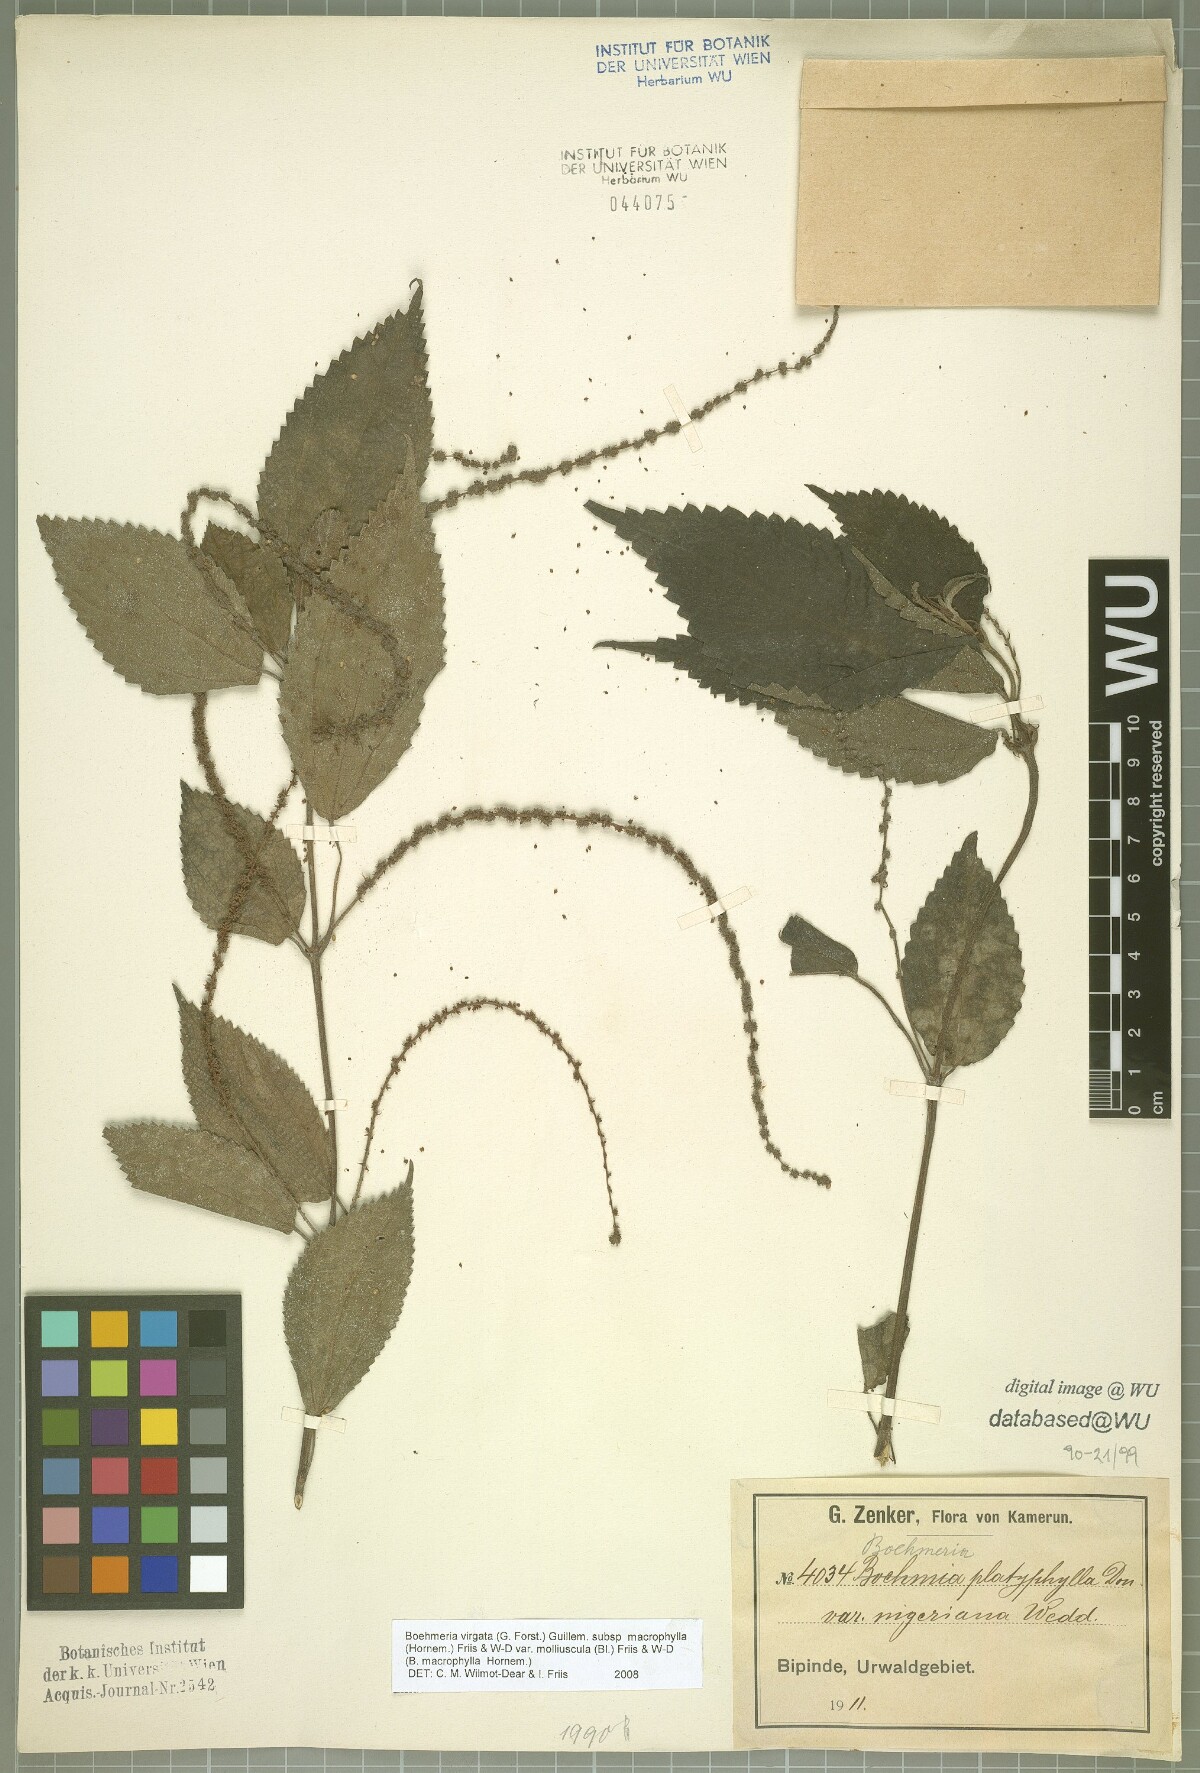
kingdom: Plantae
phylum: Tracheophyta
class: Magnoliopsida
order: Rosales
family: Urticaceae
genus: Boehmeria
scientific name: Boehmeria virgata
